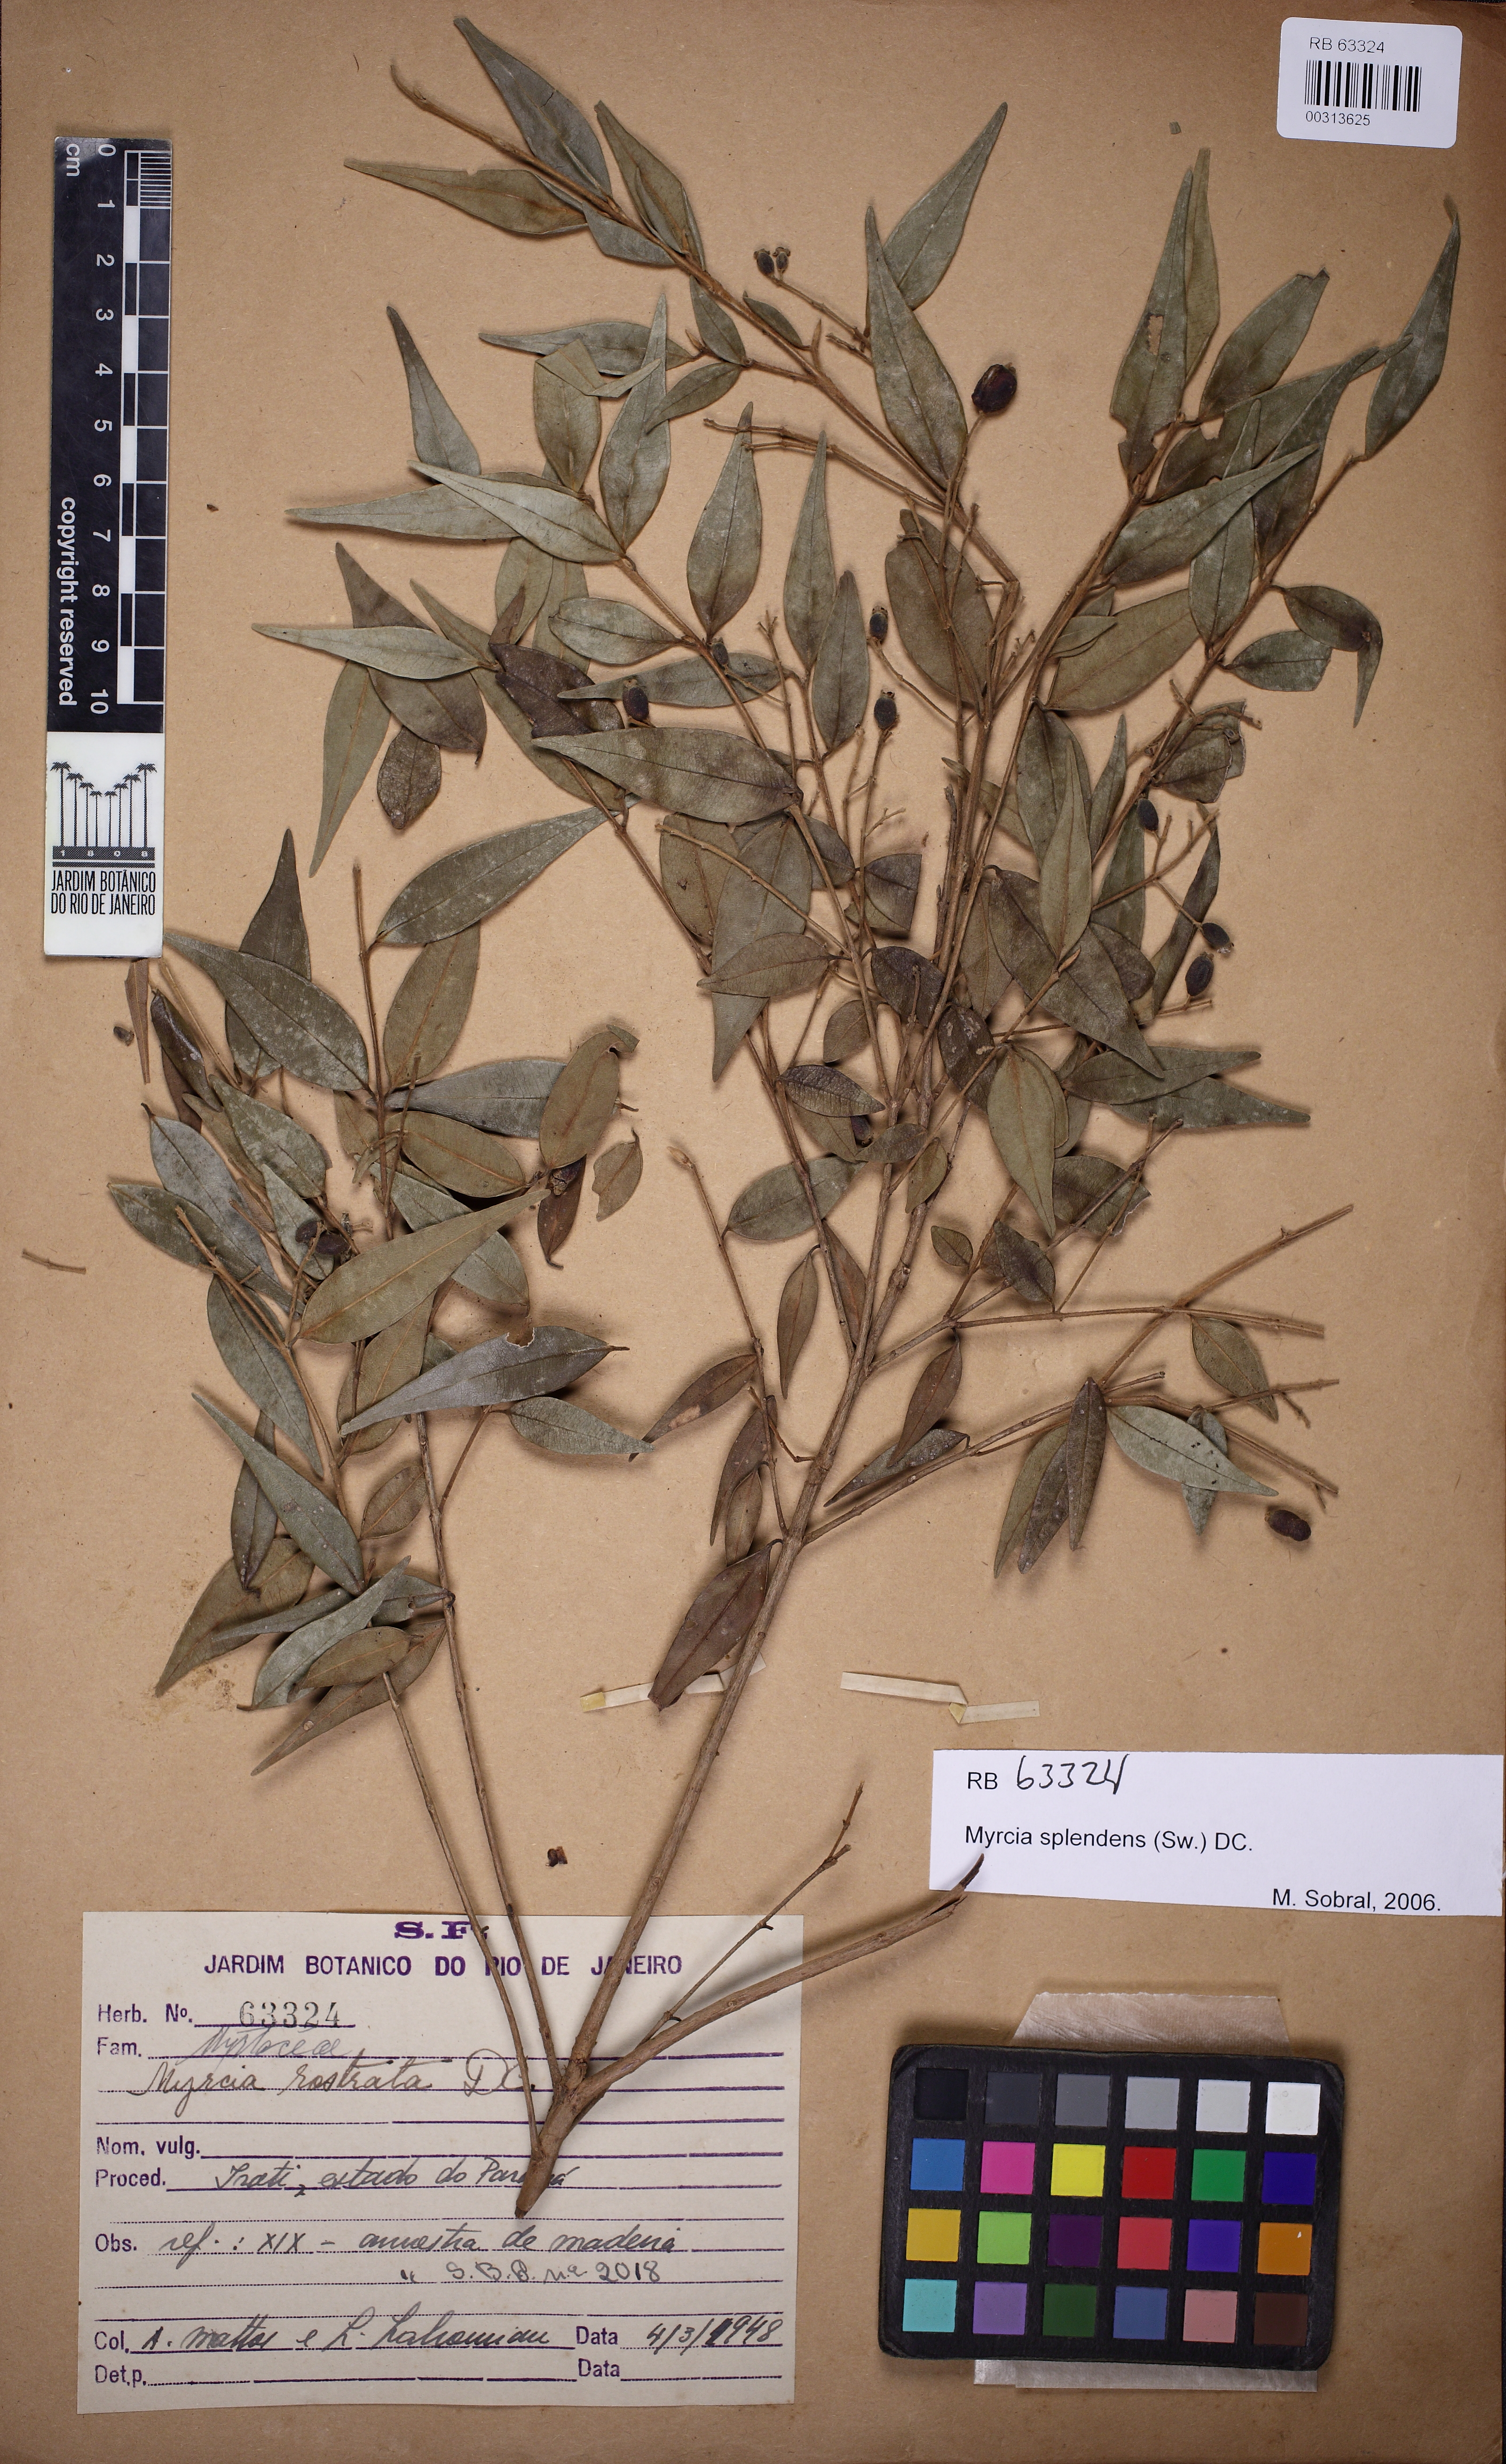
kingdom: Plantae
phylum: Tracheophyta
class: Magnoliopsida
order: Myrtales
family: Myrtaceae
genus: Myrcia
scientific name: Myrcia splendens
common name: Surinam cherry
